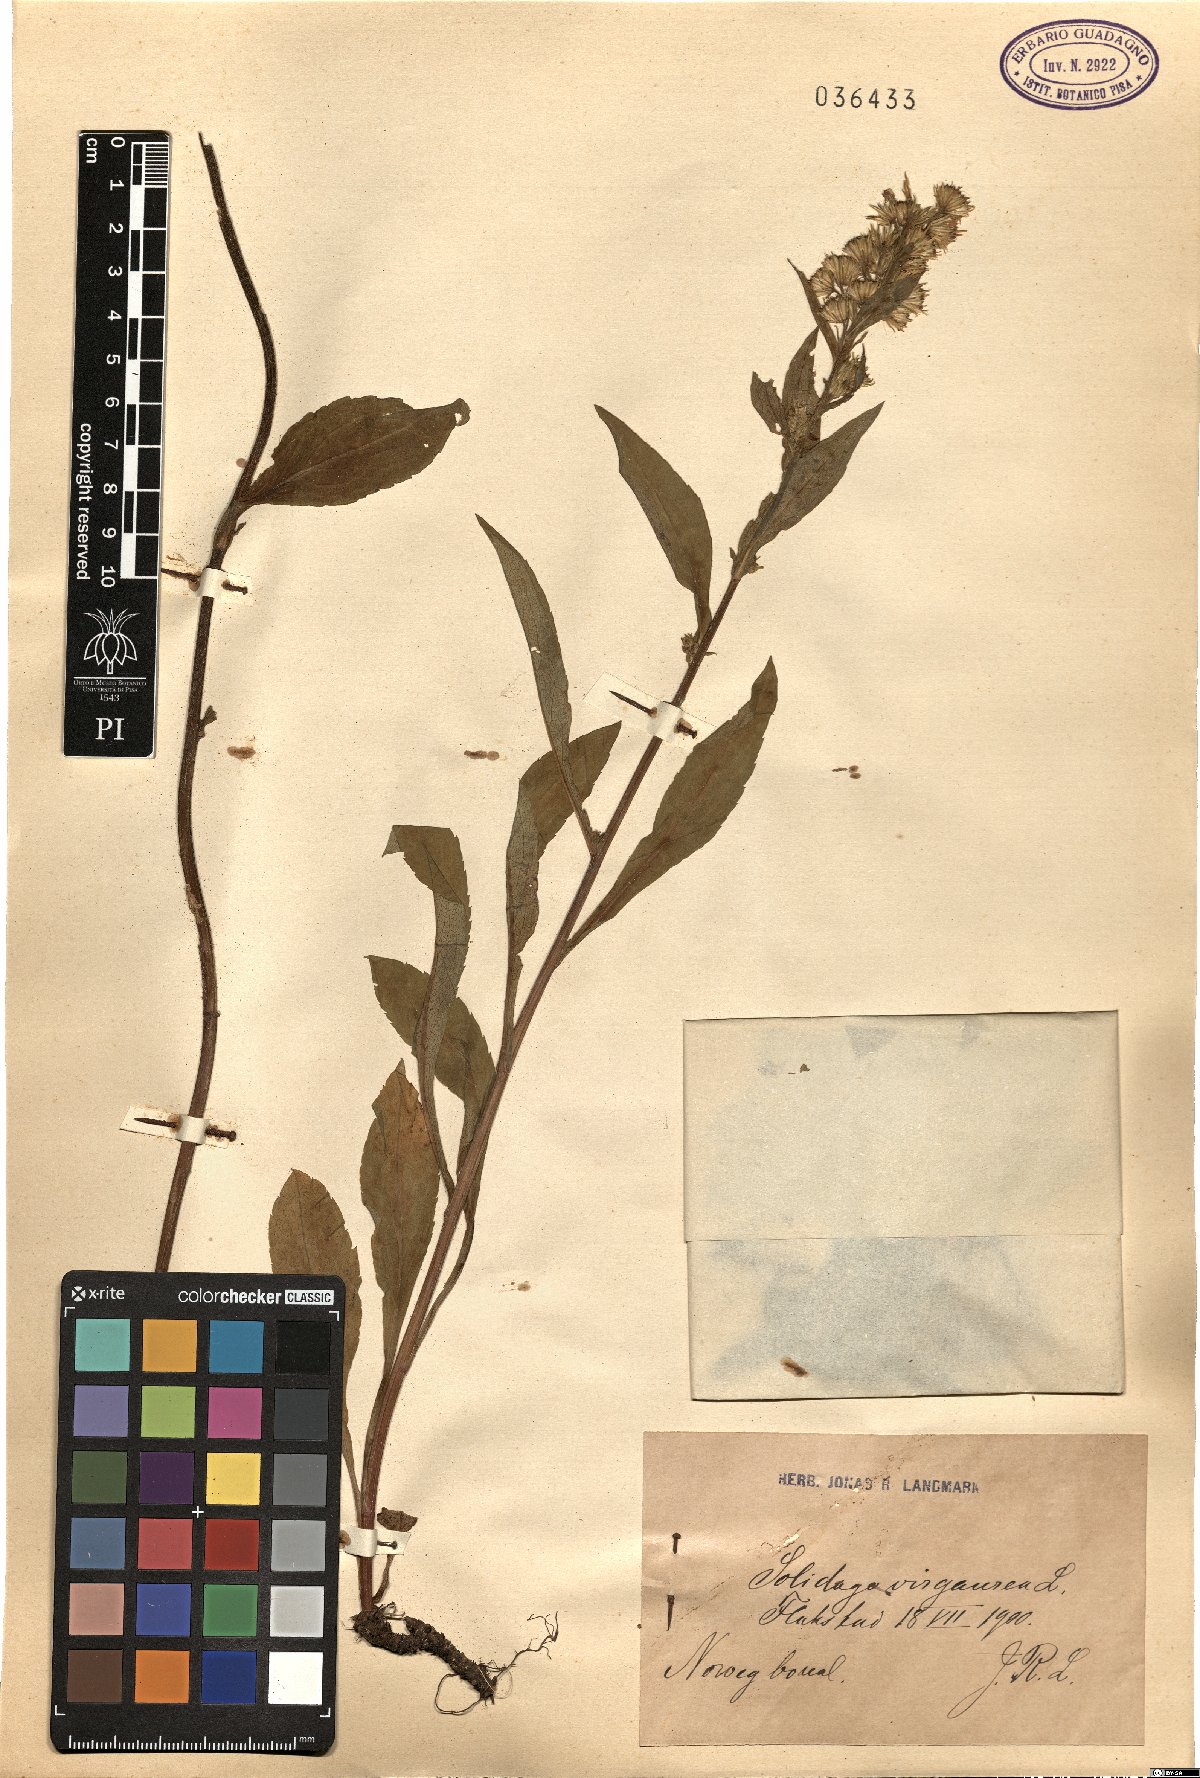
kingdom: Plantae
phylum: Tracheophyta
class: Magnoliopsida
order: Asterales
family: Asteraceae
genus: Solidago
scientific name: Solidago virgaurea
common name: Goldenrod
